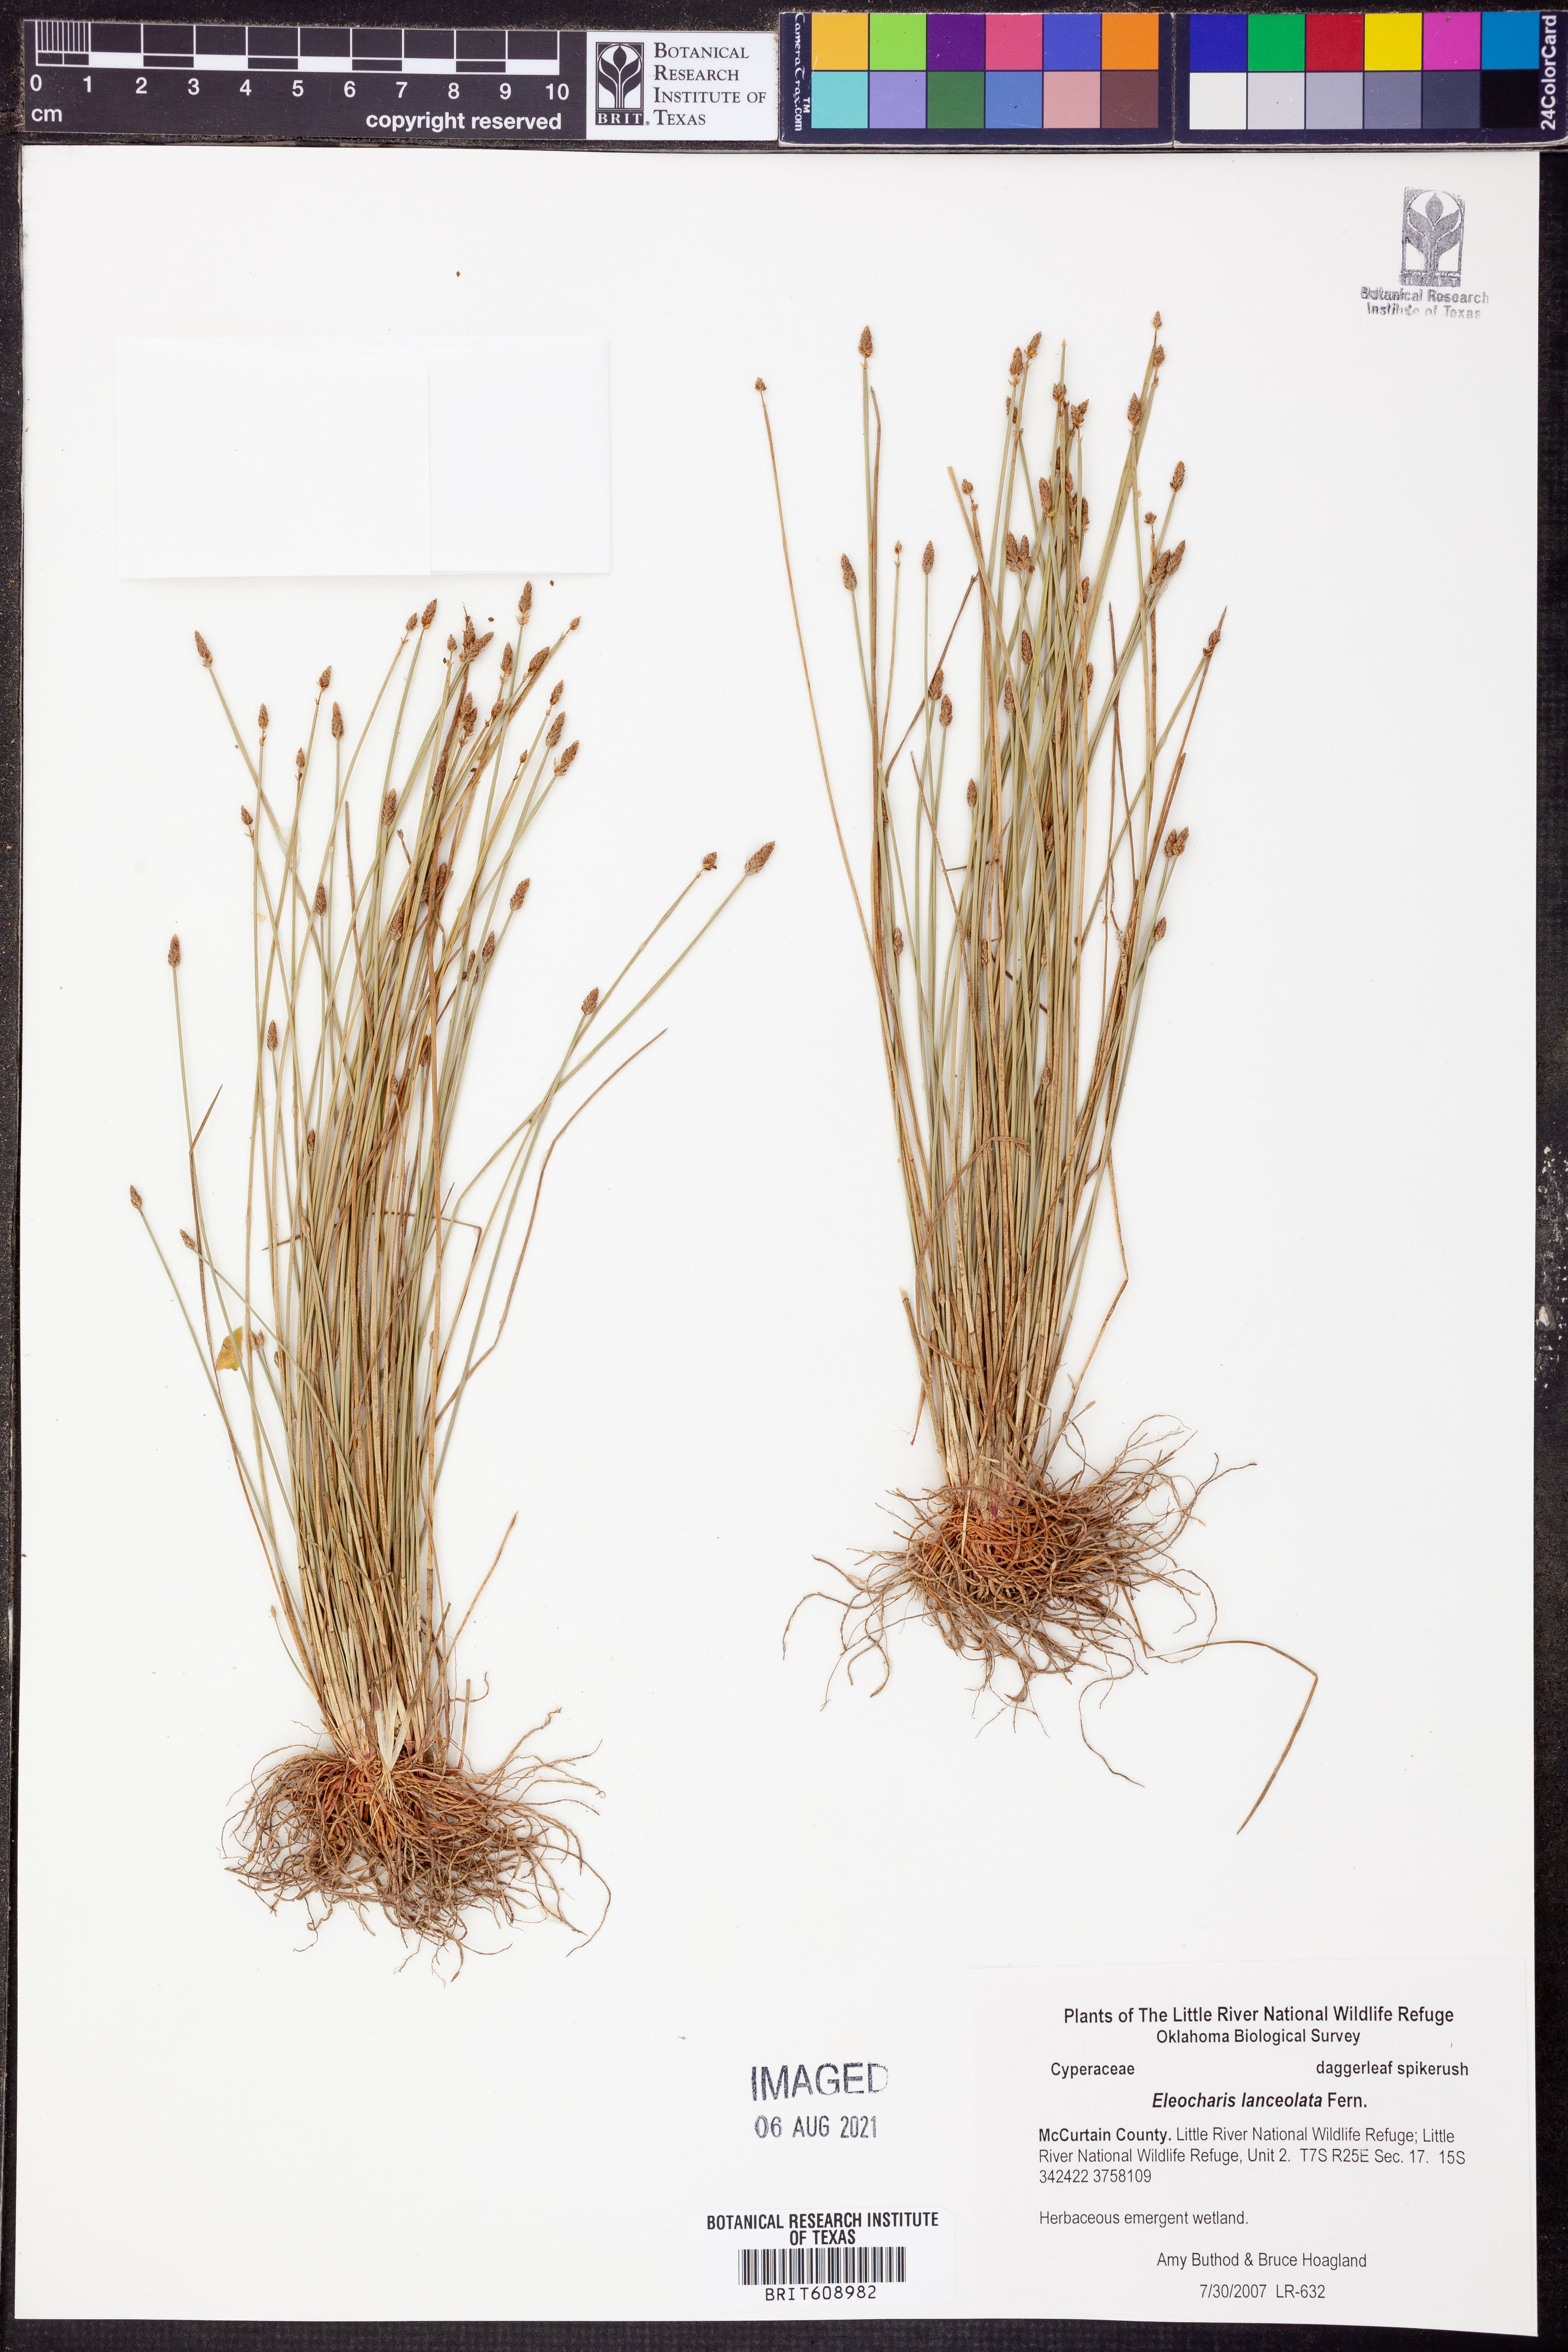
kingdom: Plantae
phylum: Tracheophyta
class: Liliopsida
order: Poales
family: Cyperaceae
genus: Eleocharis
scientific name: Eleocharis lanceolata
